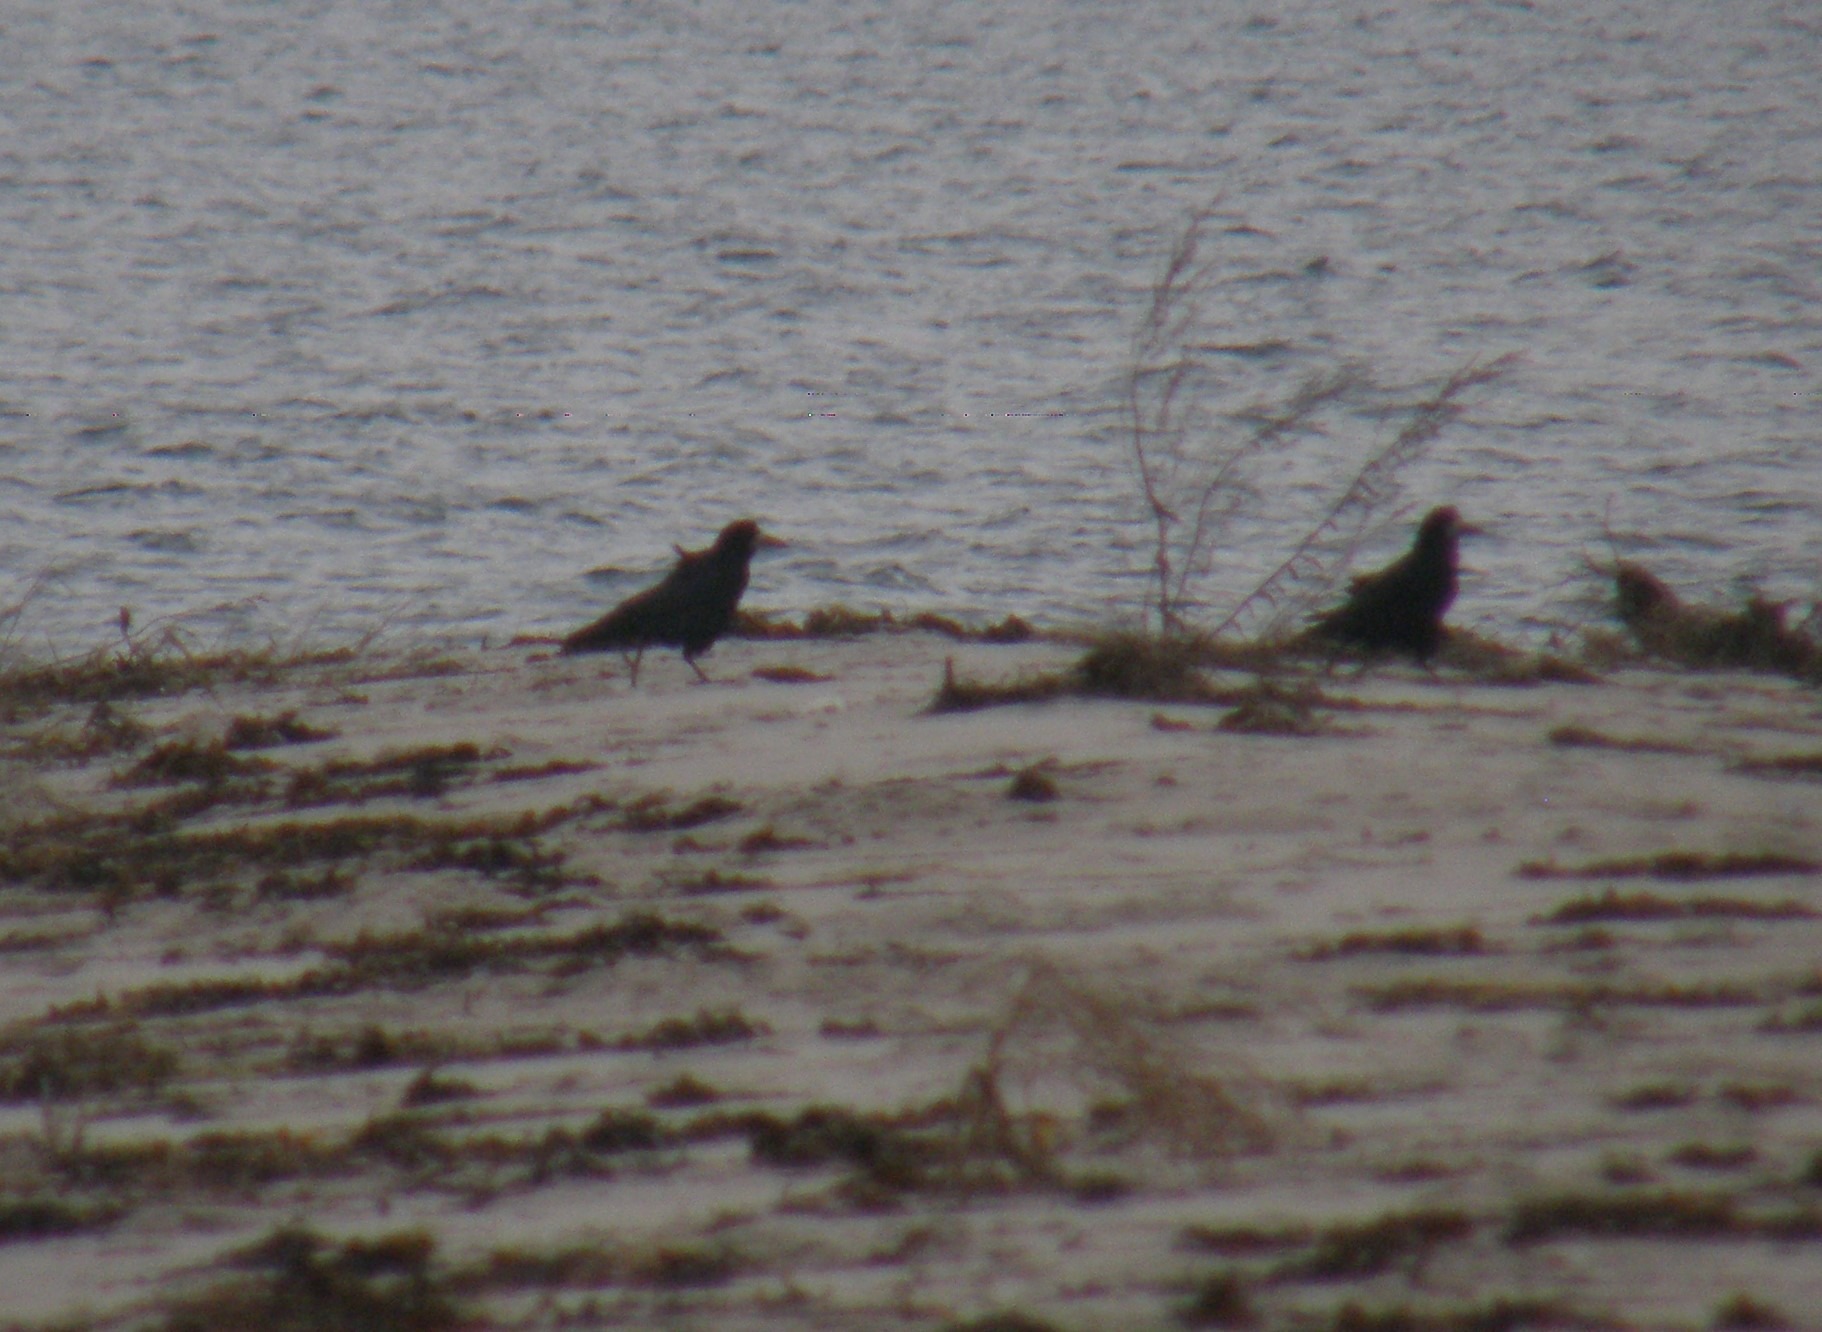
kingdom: Animalia
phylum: Chordata
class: Aves
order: Passeriformes
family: Corvidae
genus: Corvus
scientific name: Corvus frugilegus
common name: Råge
